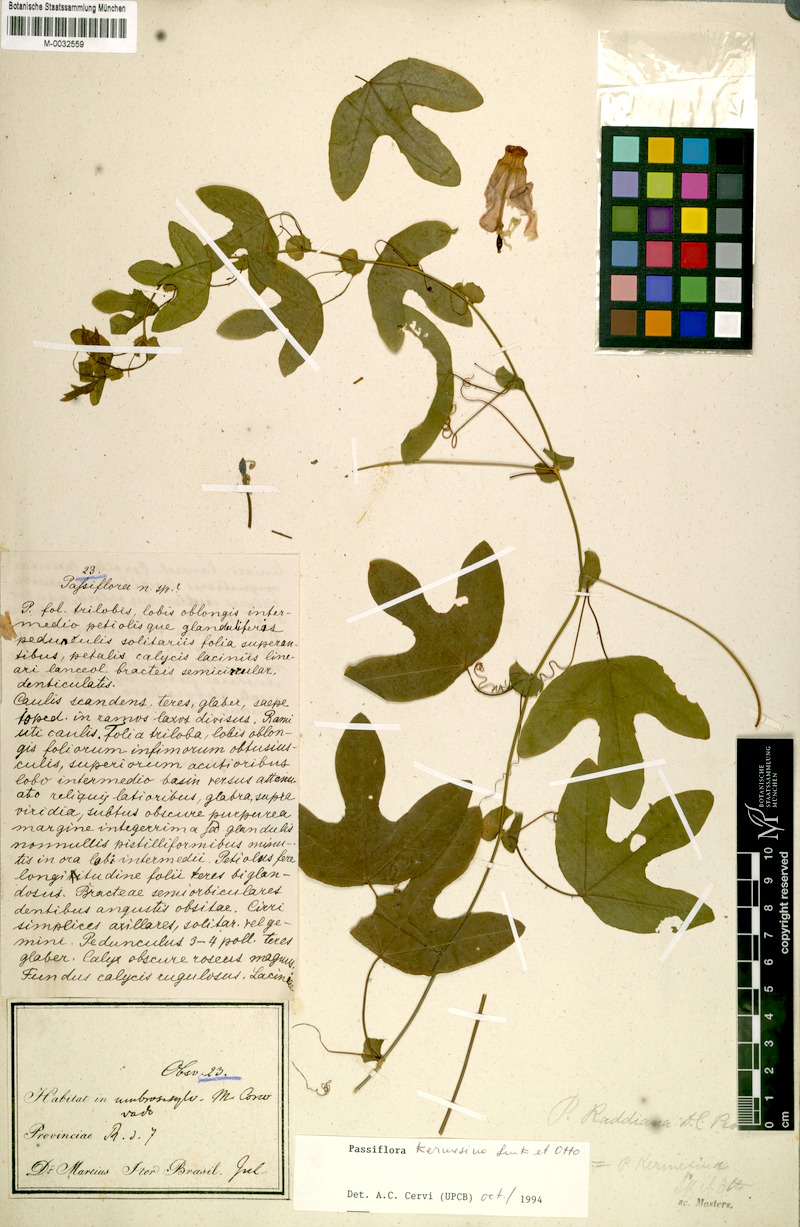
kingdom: Plantae
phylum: Tracheophyta
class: Magnoliopsida
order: Malpighiales
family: Passifloraceae
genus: Passiflora
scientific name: Passiflora kermesina
